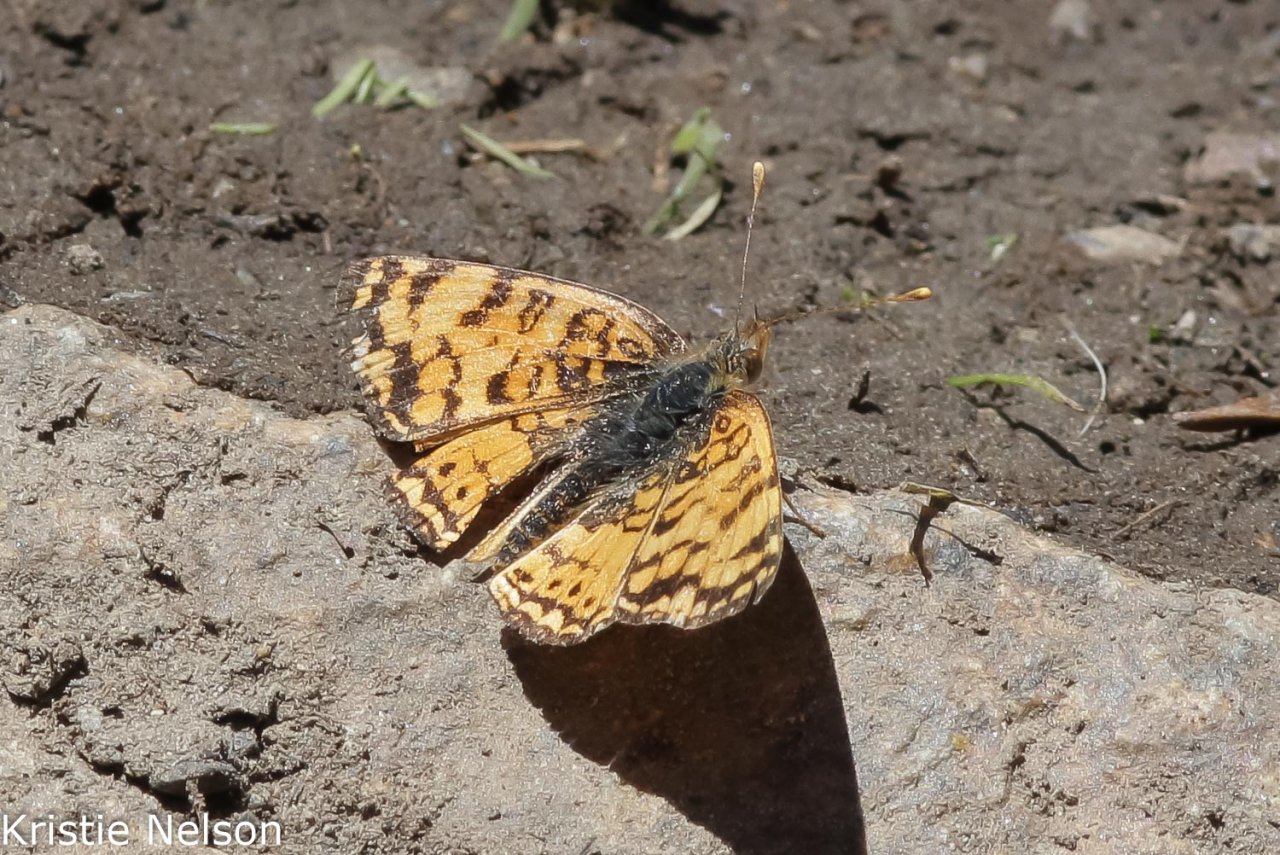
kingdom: Animalia
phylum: Arthropoda
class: Insecta
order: Lepidoptera
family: Nymphalidae
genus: Eresia
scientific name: Eresia aveyrona
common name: Mylitta Crescent
